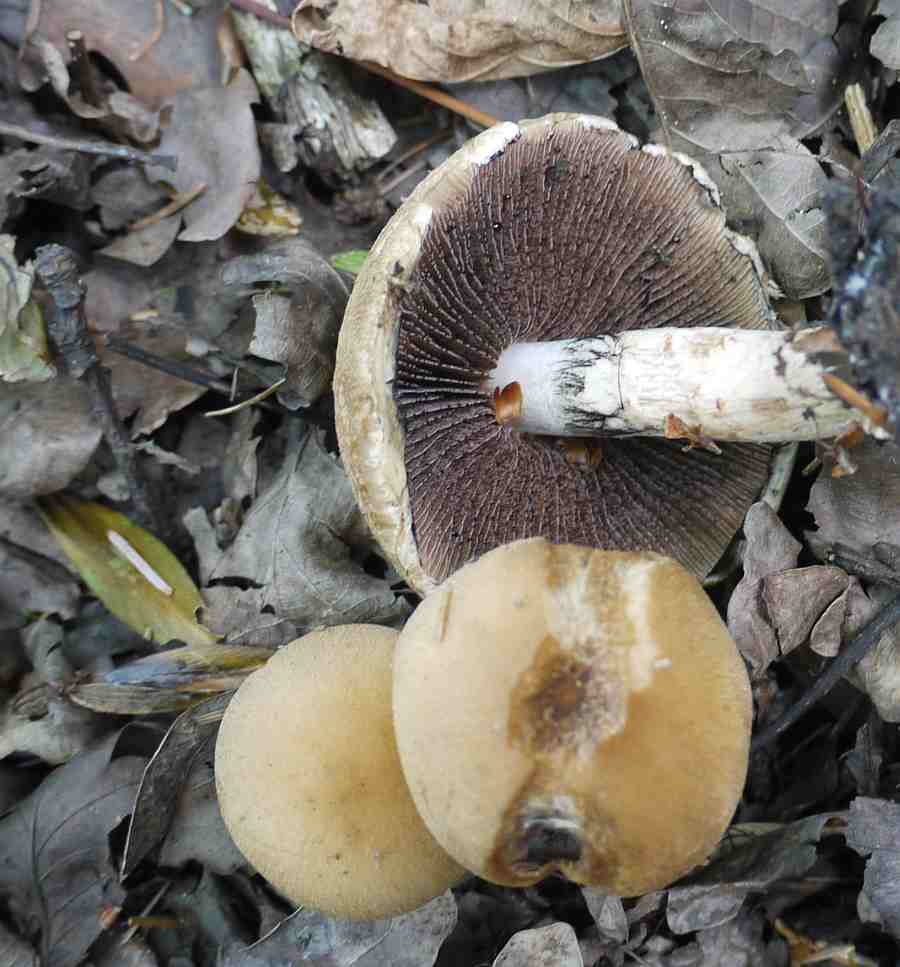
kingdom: Fungi
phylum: Basidiomycota
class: Agaricomycetes
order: Agaricales
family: Psathyrellaceae
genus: Lacrymaria
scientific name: Lacrymaria lacrymabunda
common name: grædende mørkhat
